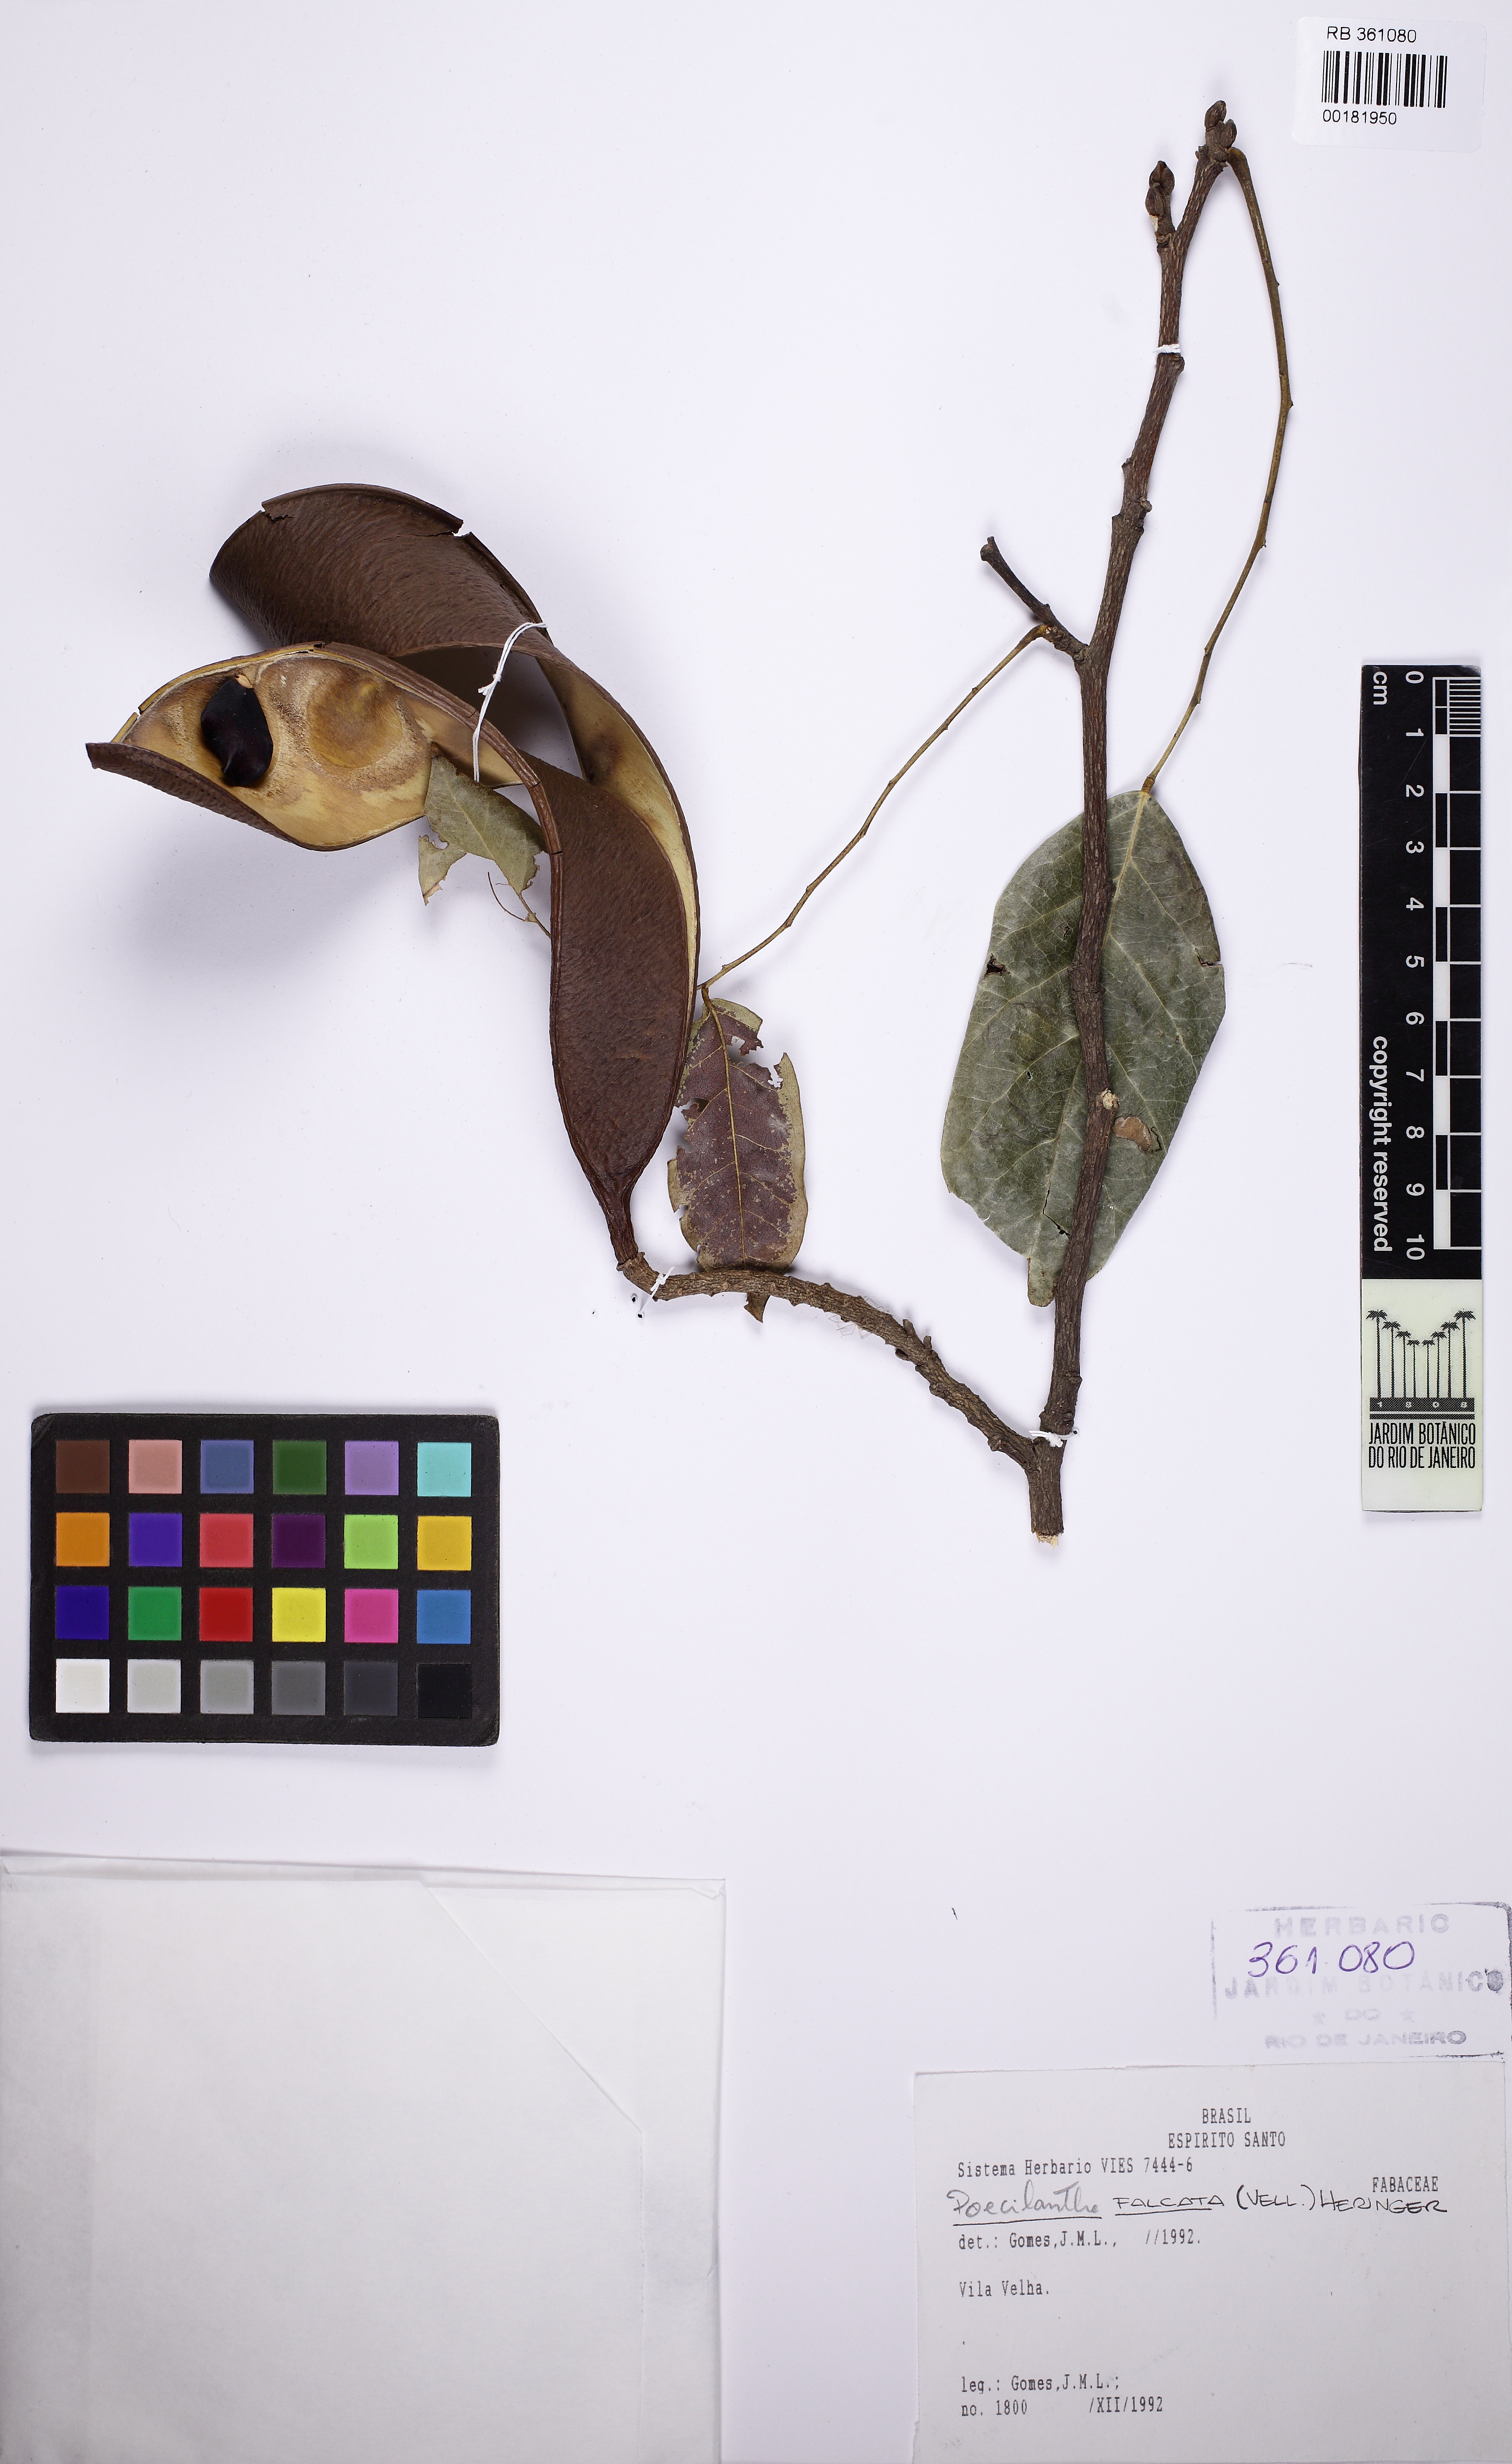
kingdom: Plantae
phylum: Tracheophyta
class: Magnoliopsida
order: Fabales
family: Fabaceae
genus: Poecilanthe
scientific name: Poecilanthe
